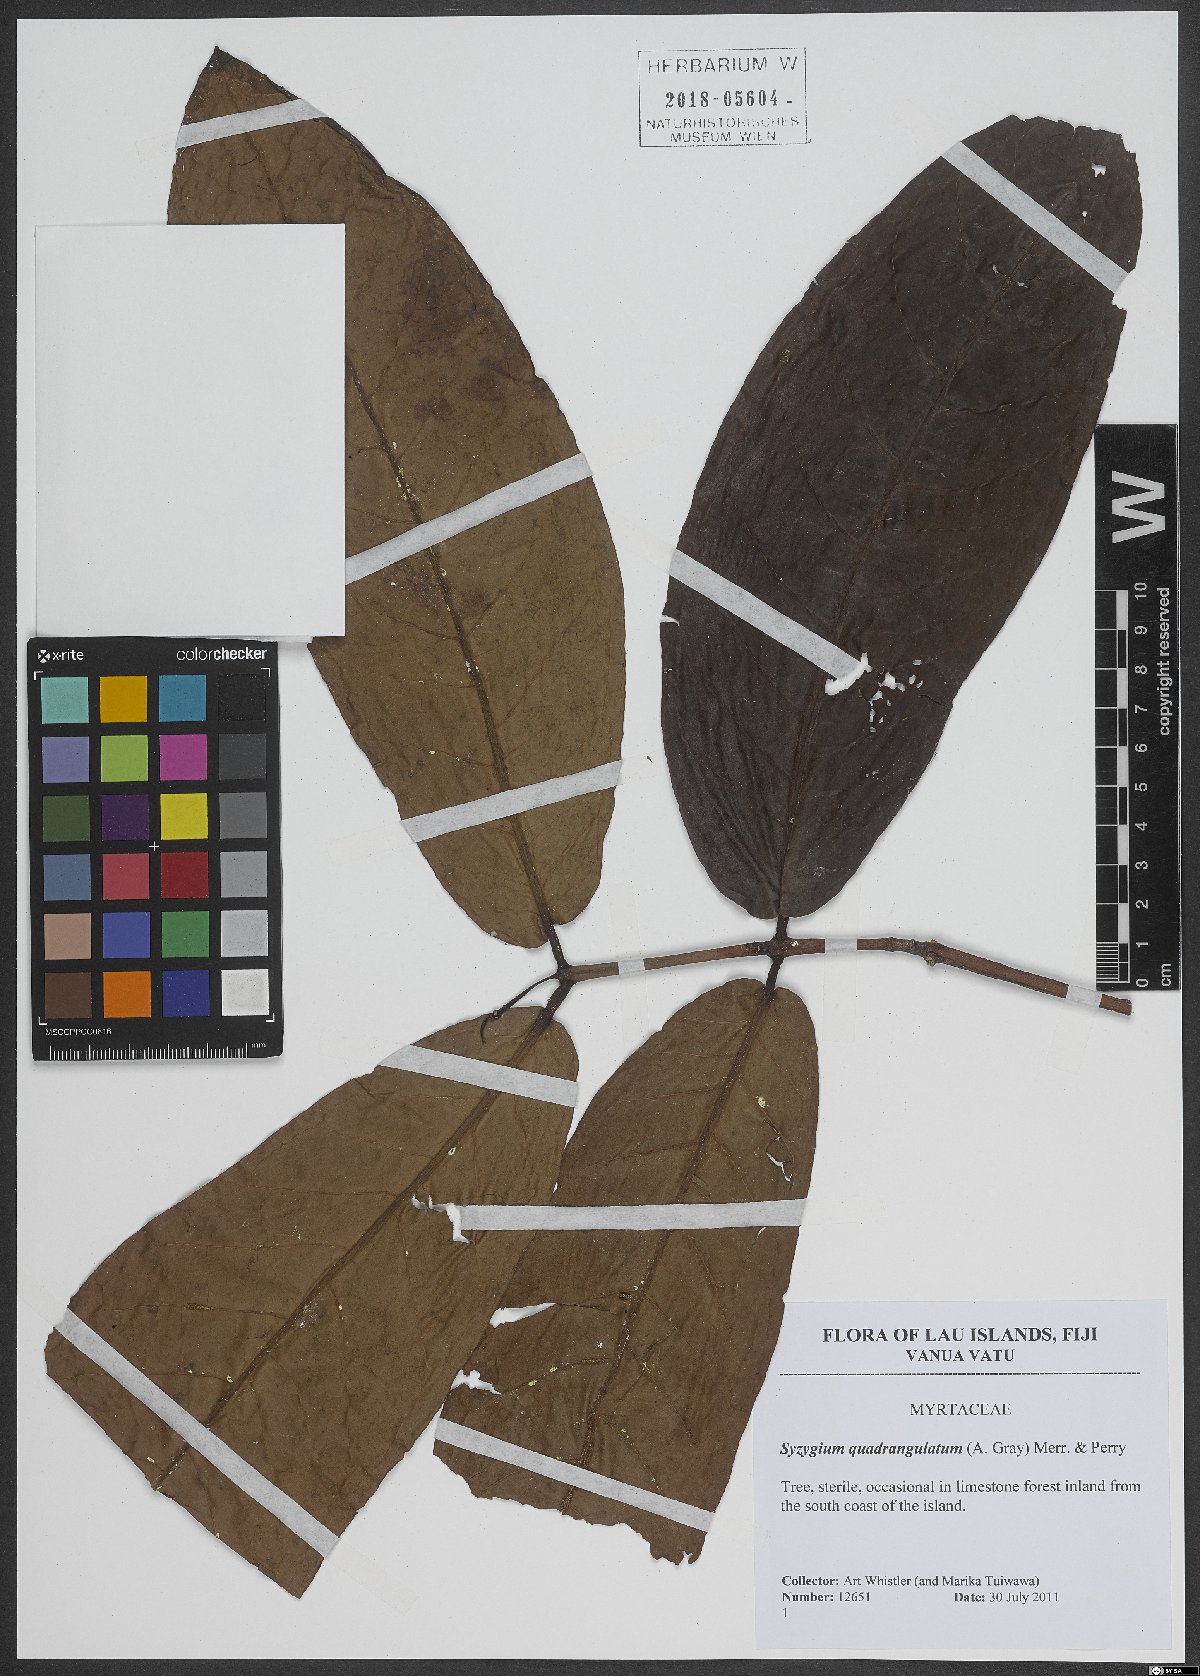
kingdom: Plantae
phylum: Tracheophyta
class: Magnoliopsida
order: Myrtales
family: Myrtaceae
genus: Syzygium
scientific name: Syzygium quadrangulatum
